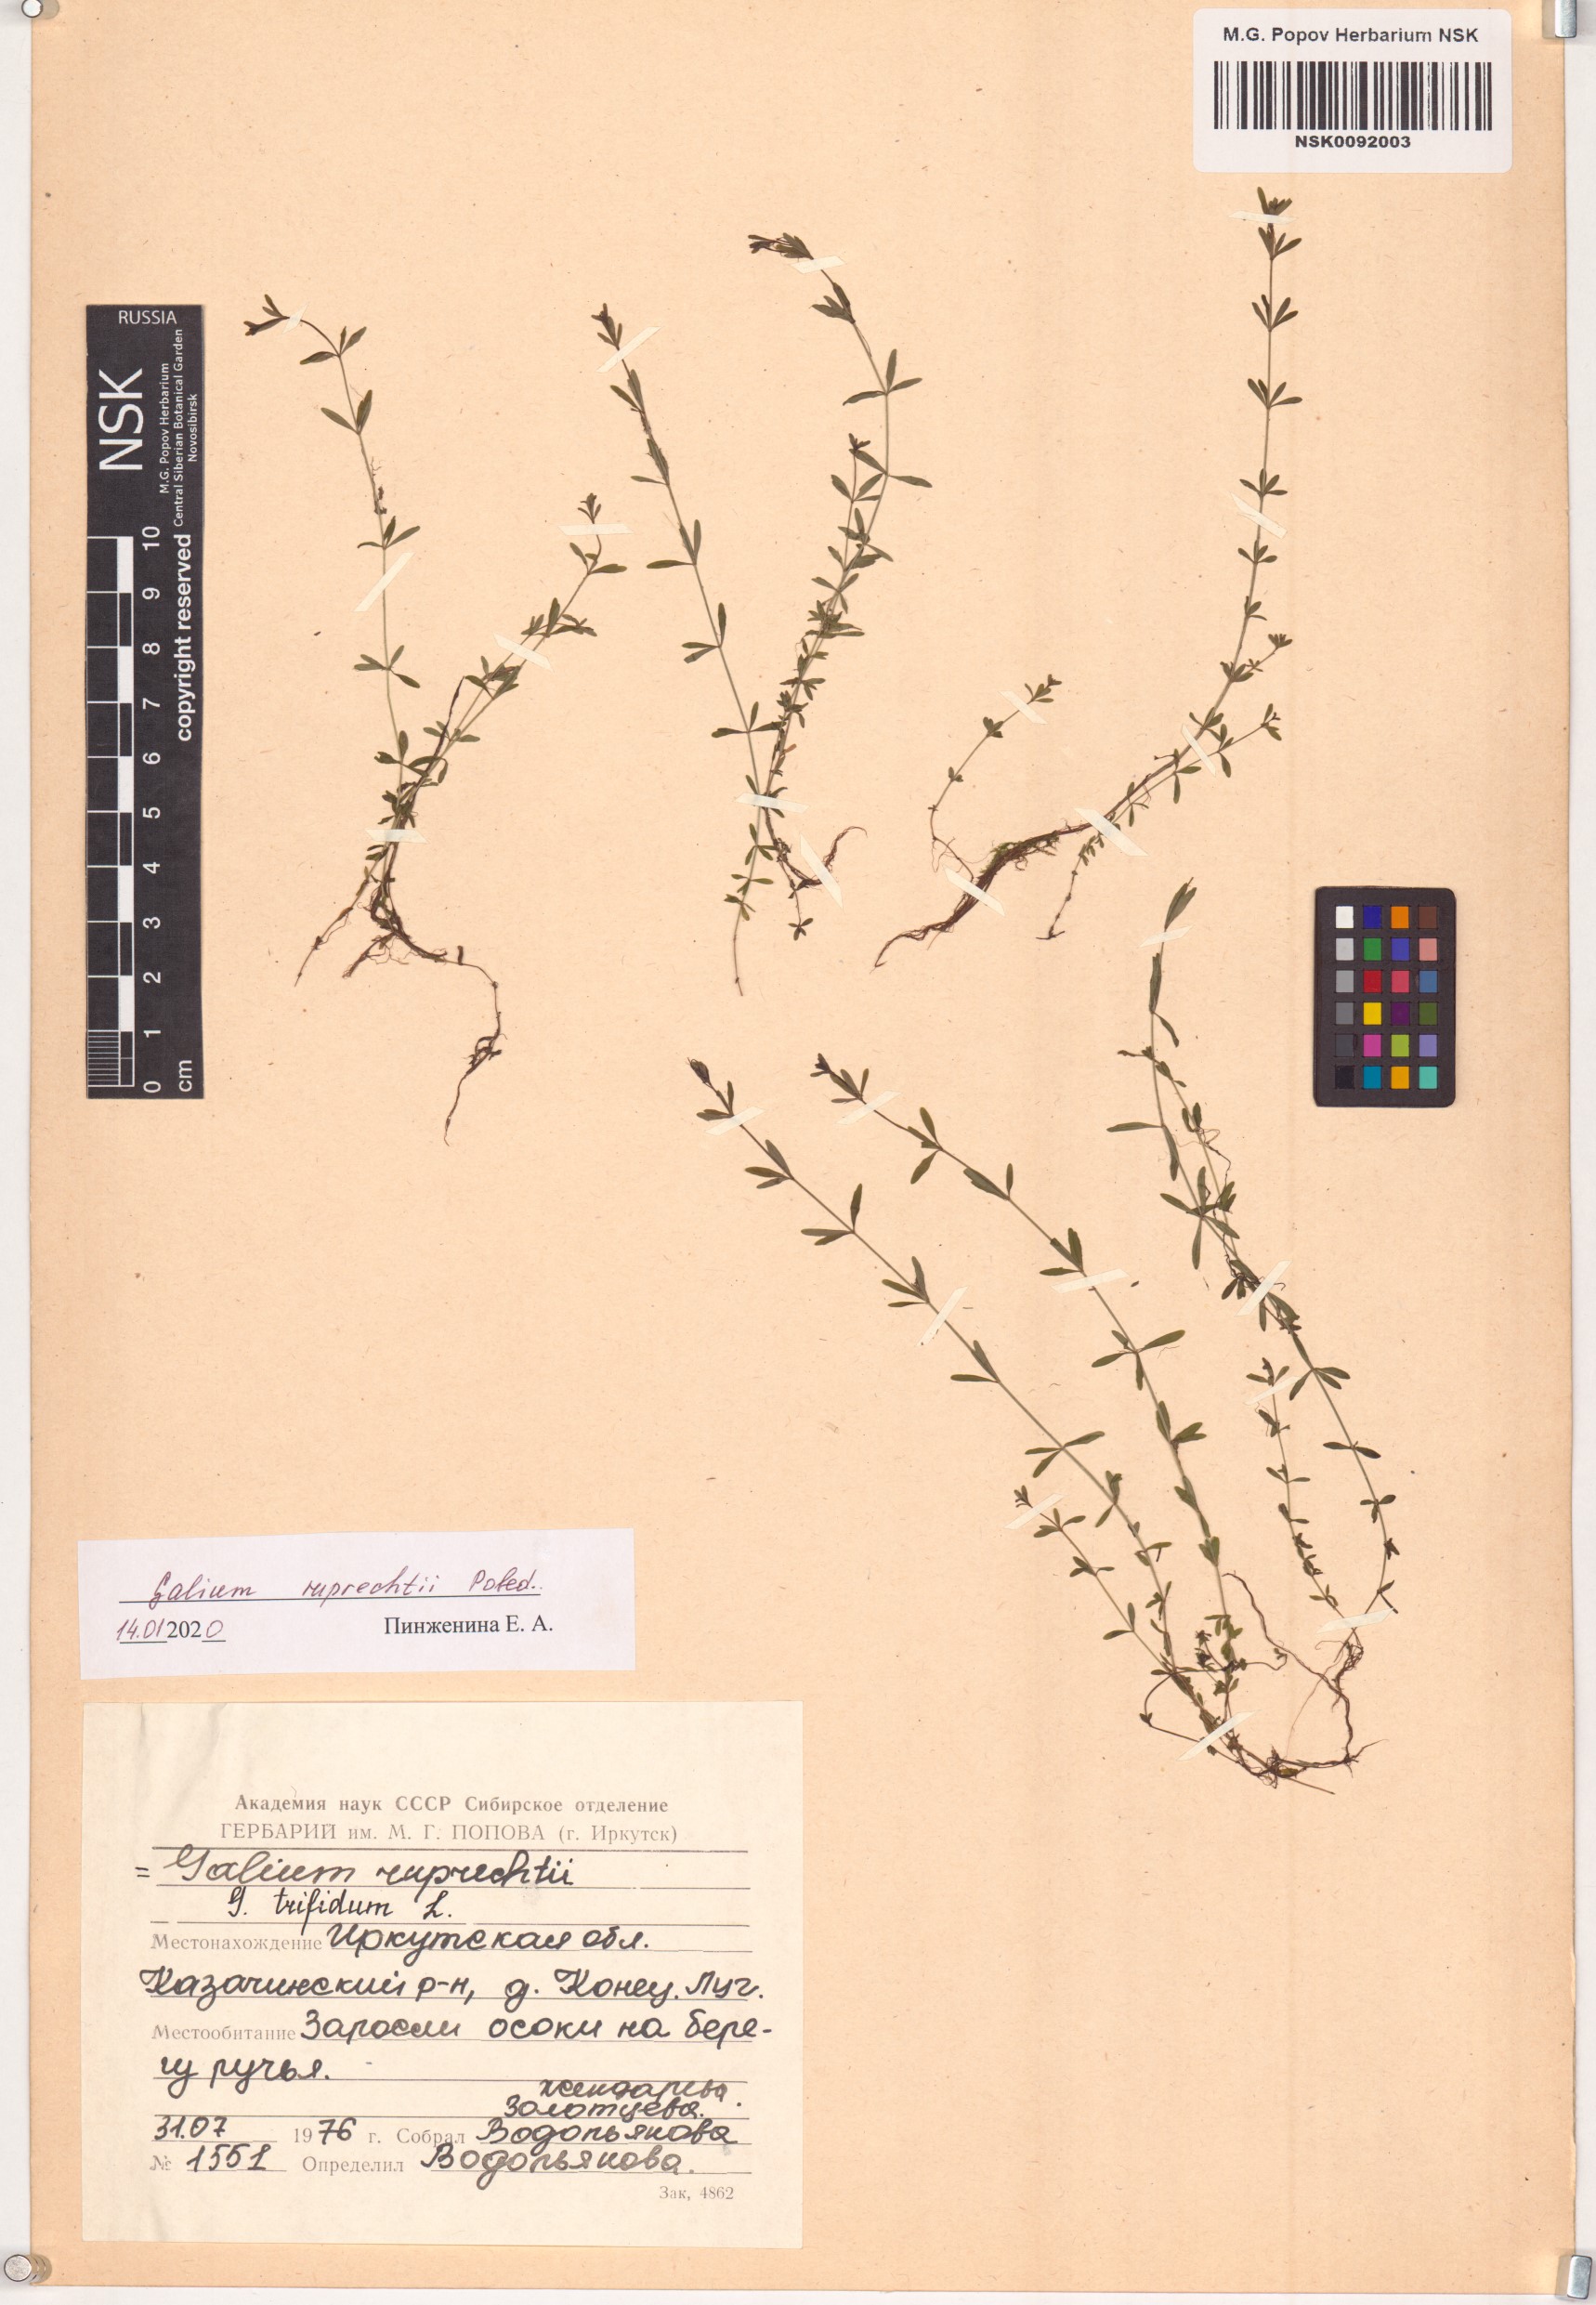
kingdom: Plantae
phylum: Tracheophyta
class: Magnoliopsida
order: Gentianales
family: Rubiaceae
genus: Galium
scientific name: Galium trifidum
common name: Small bedstraw
